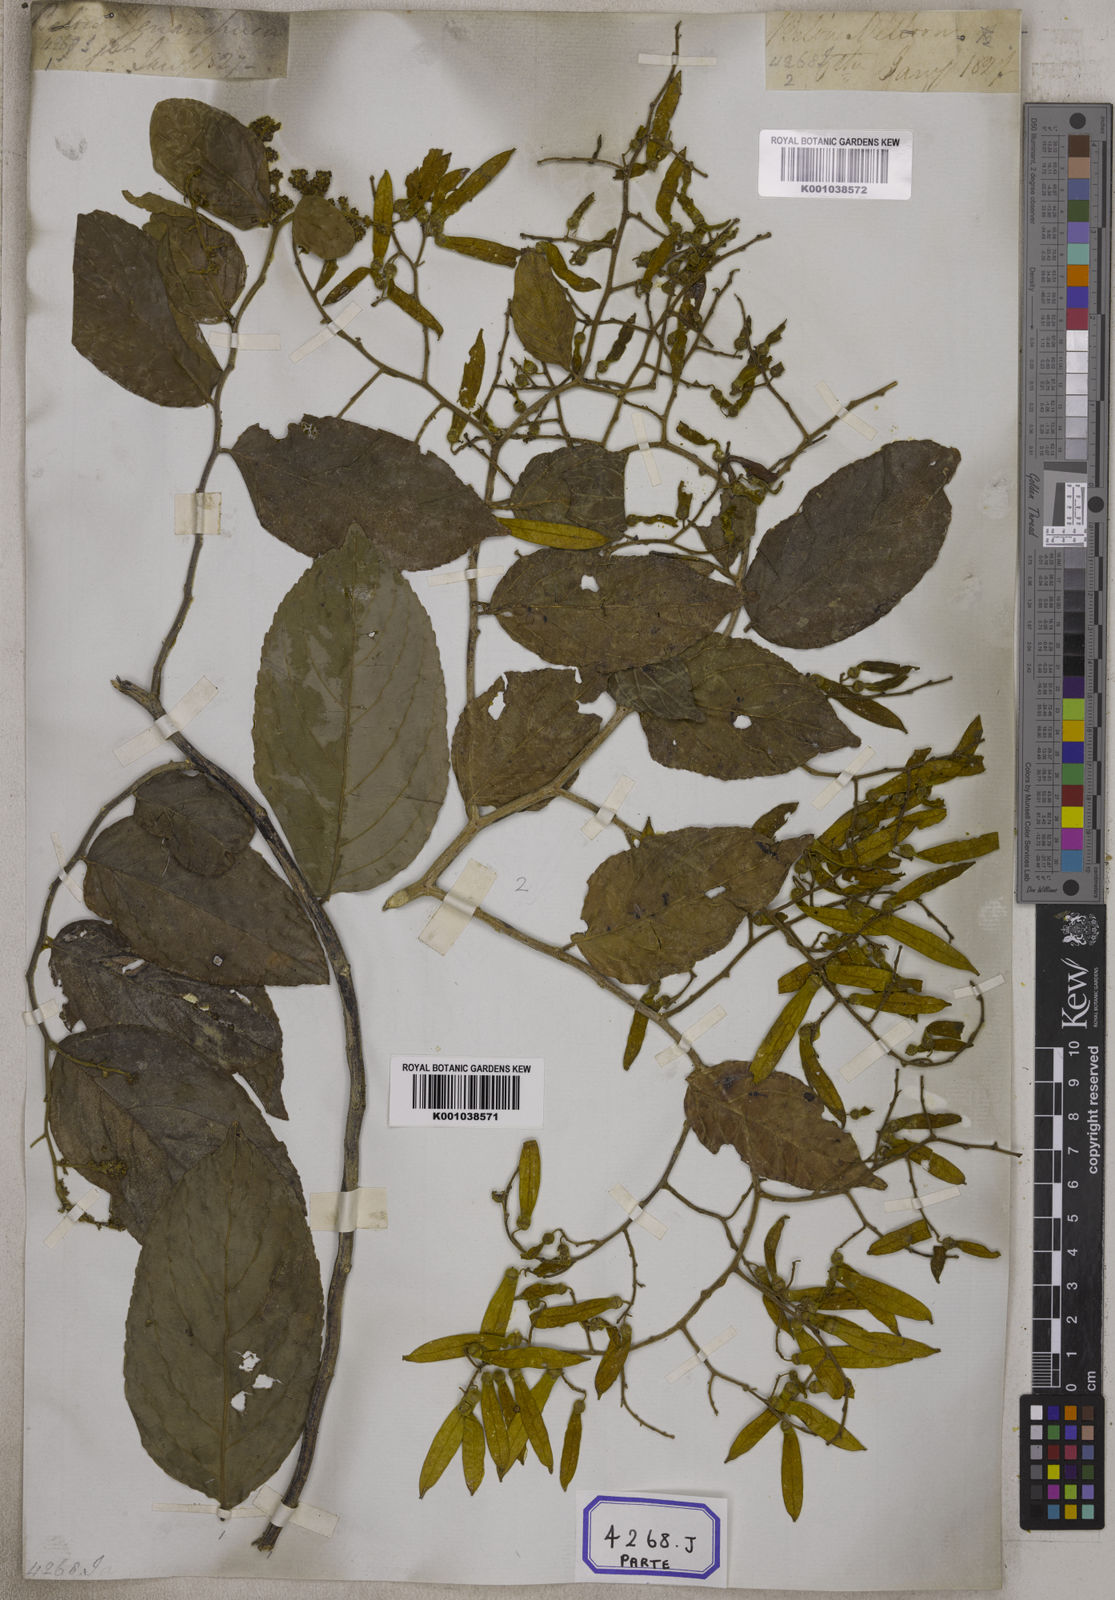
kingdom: Plantae
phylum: Tracheophyta
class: Magnoliopsida
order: Rosales
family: Rhamnaceae
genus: Ventilago
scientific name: Ventilago madraspatana
